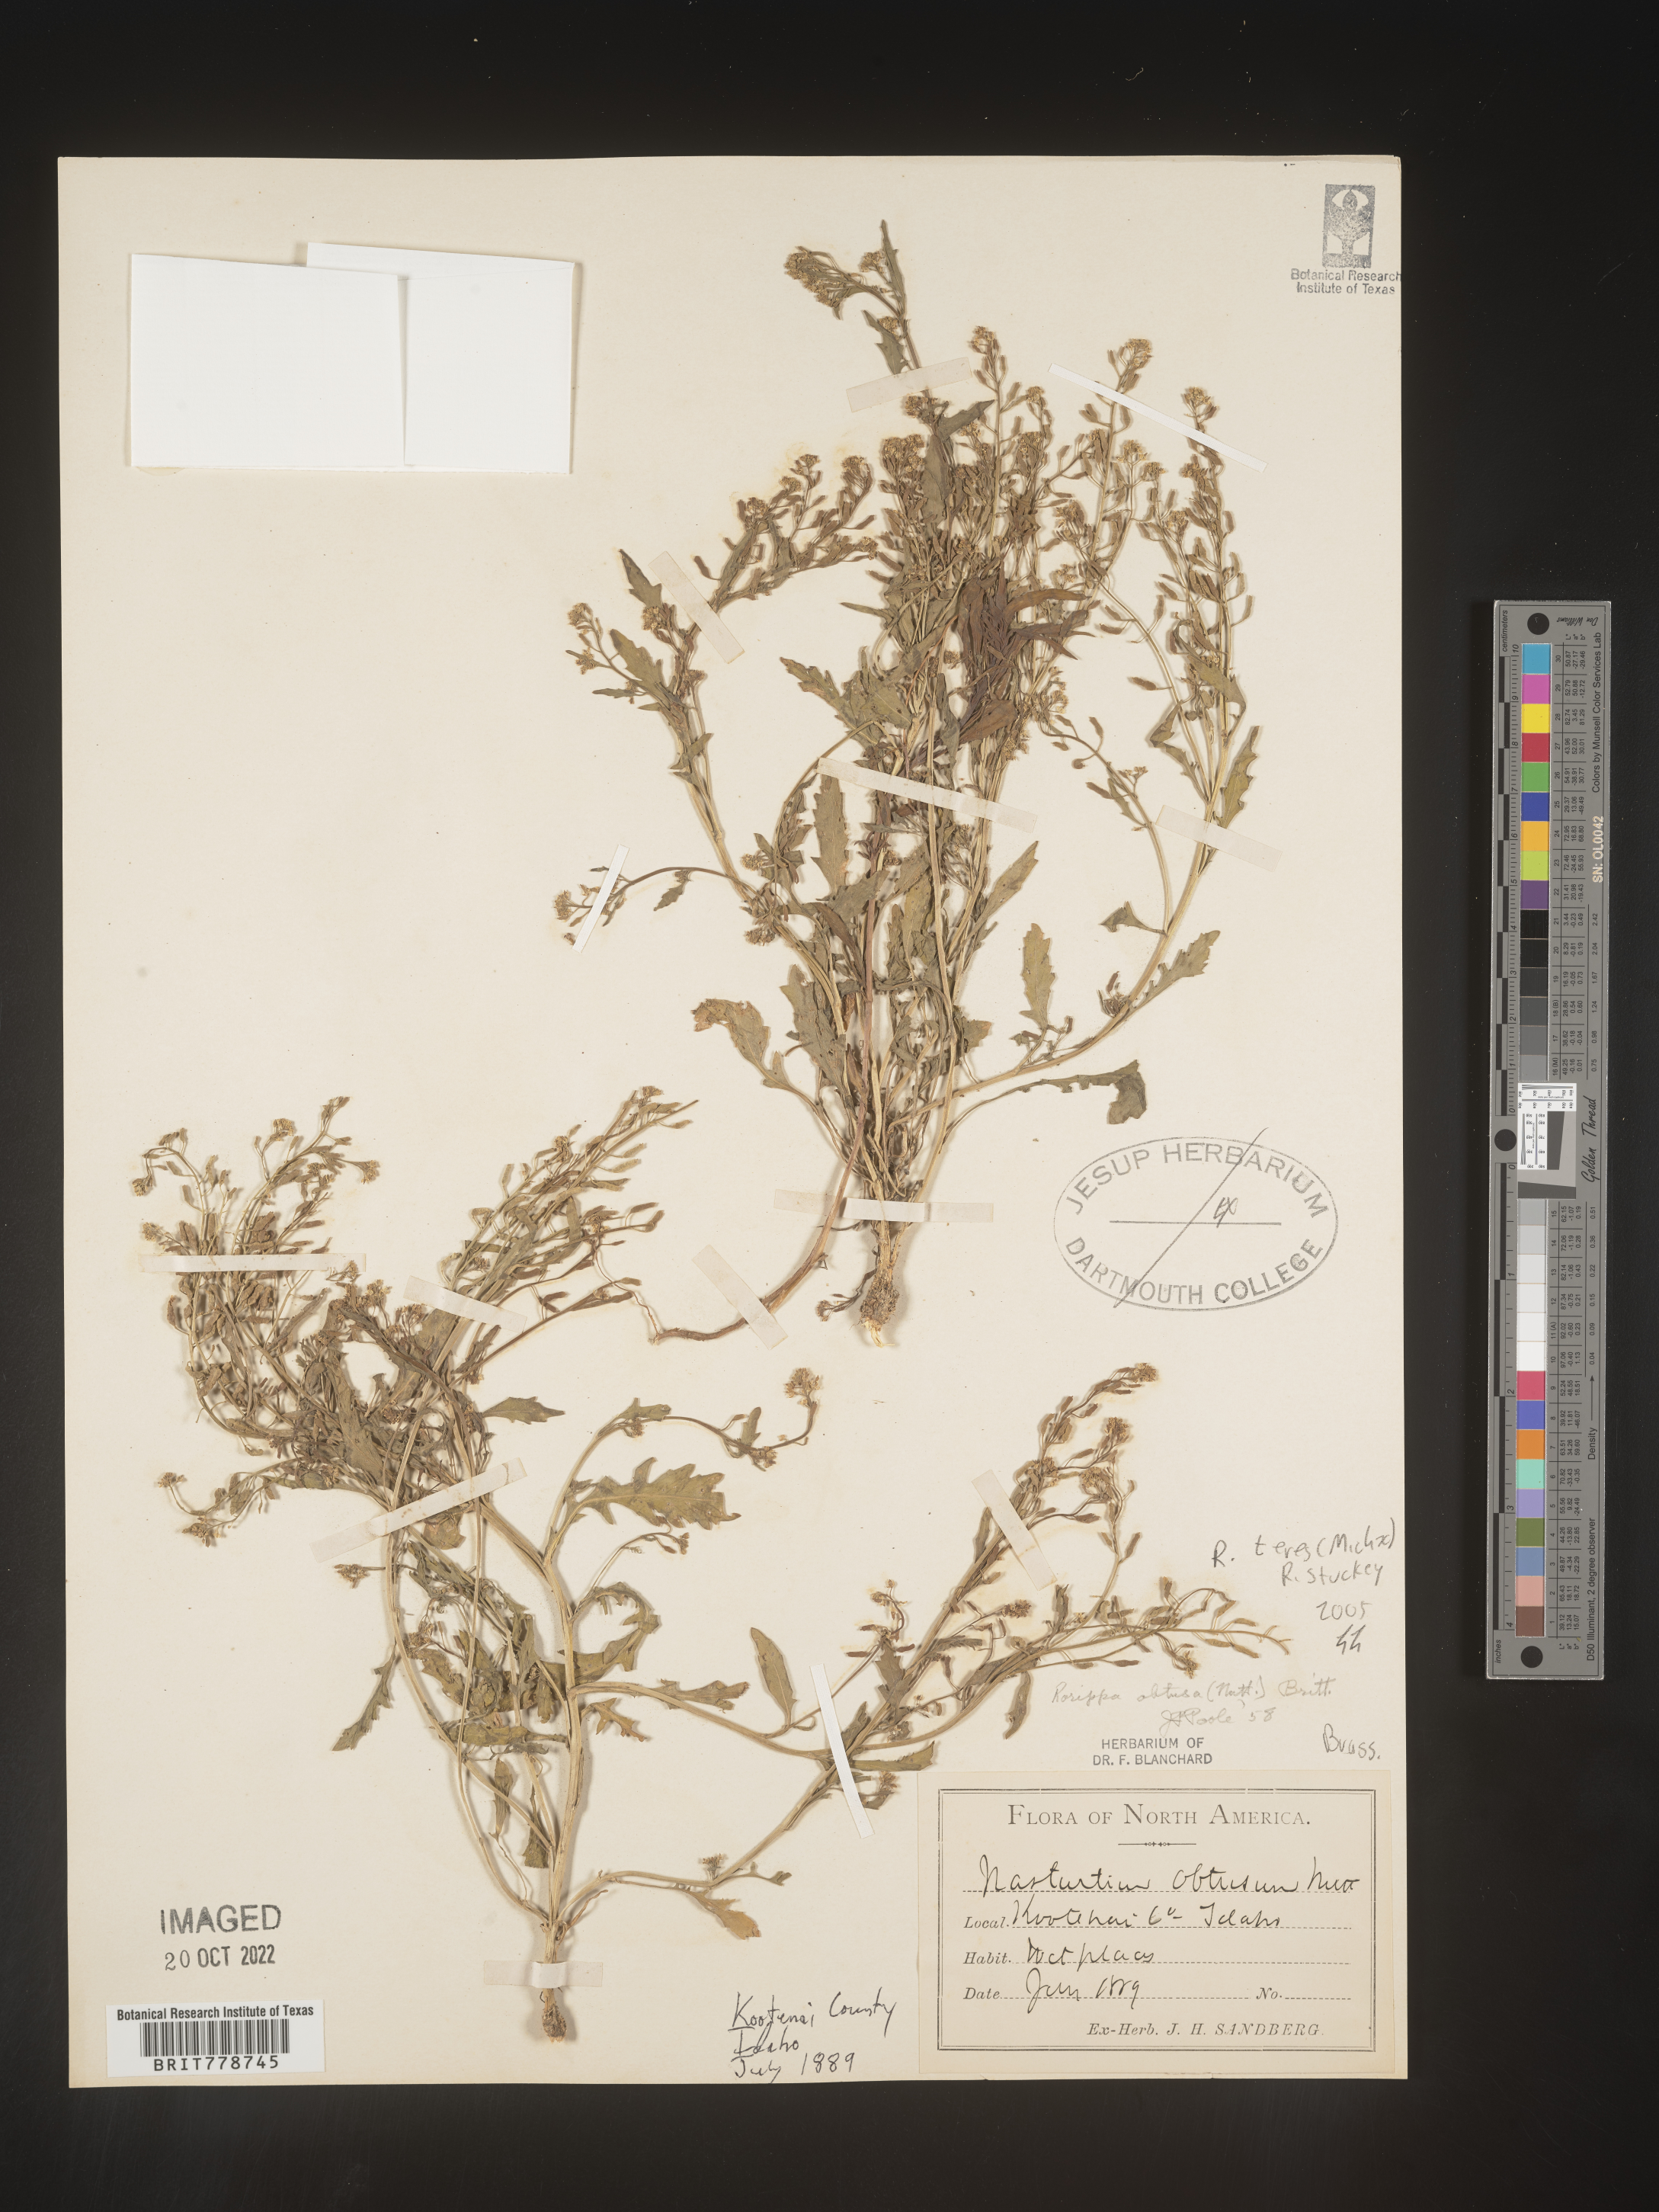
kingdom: Plantae
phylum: Tracheophyta
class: Magnoliopsida
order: Brassicales
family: Brassicaceae
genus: Rorippa
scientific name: Rorippa teres
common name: Southern marsh yellowcress
